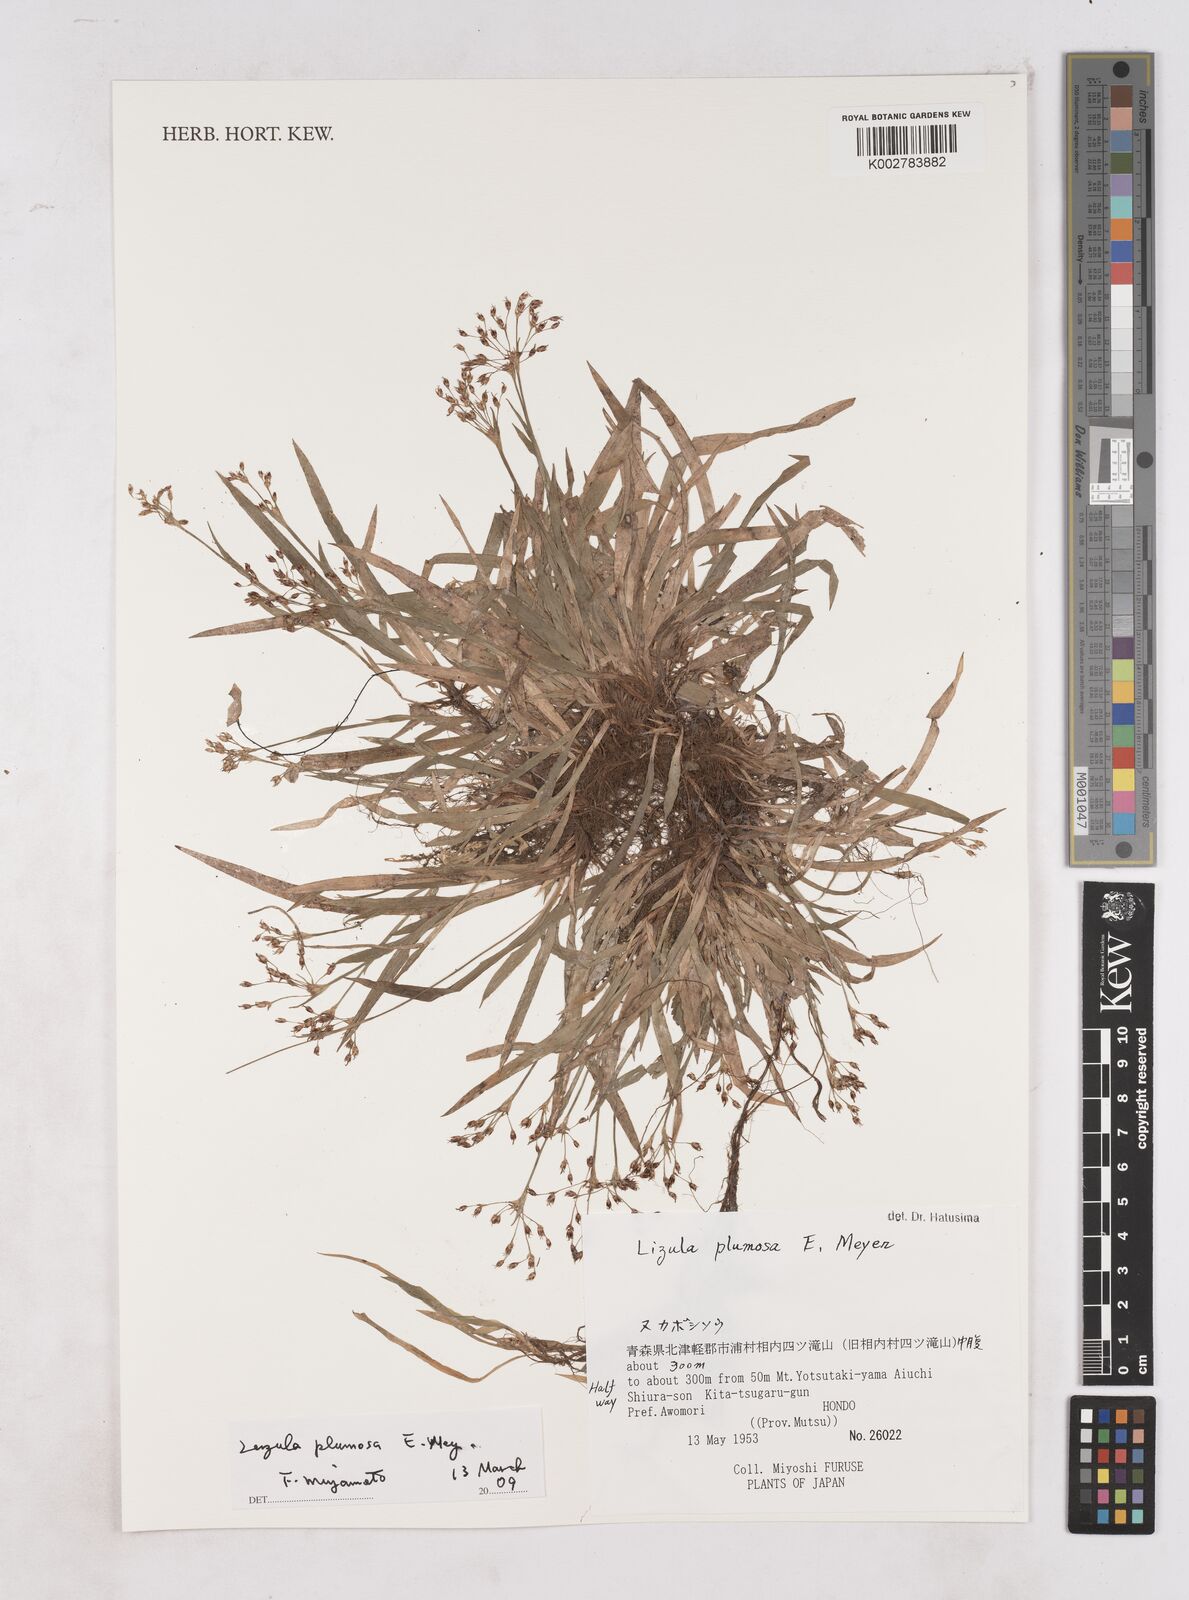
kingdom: Plantae
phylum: Tracheophyta
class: Liliopsida
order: Poales
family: Juncaceae
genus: Luzula
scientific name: Luzula plumosa
